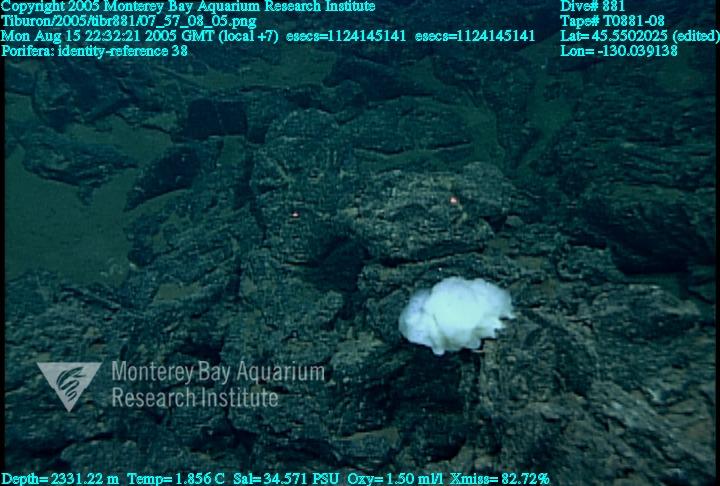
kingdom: Animalia
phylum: Porifera
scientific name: Porifera
